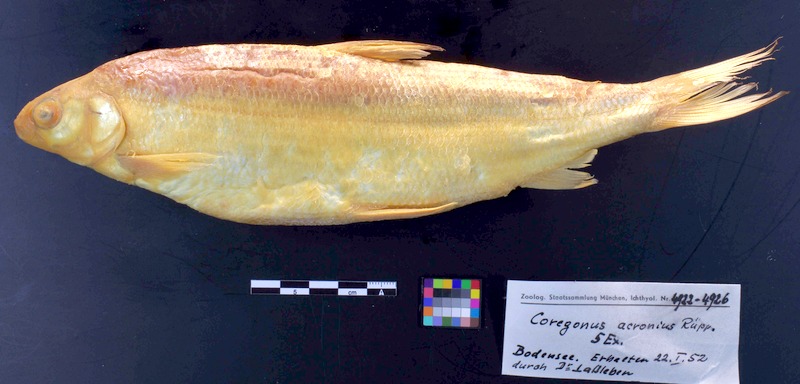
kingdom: Animalia
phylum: Chordata
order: Salmoniformes
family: Salmonidae
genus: Coregonus
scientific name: Coregonus gutturosus
